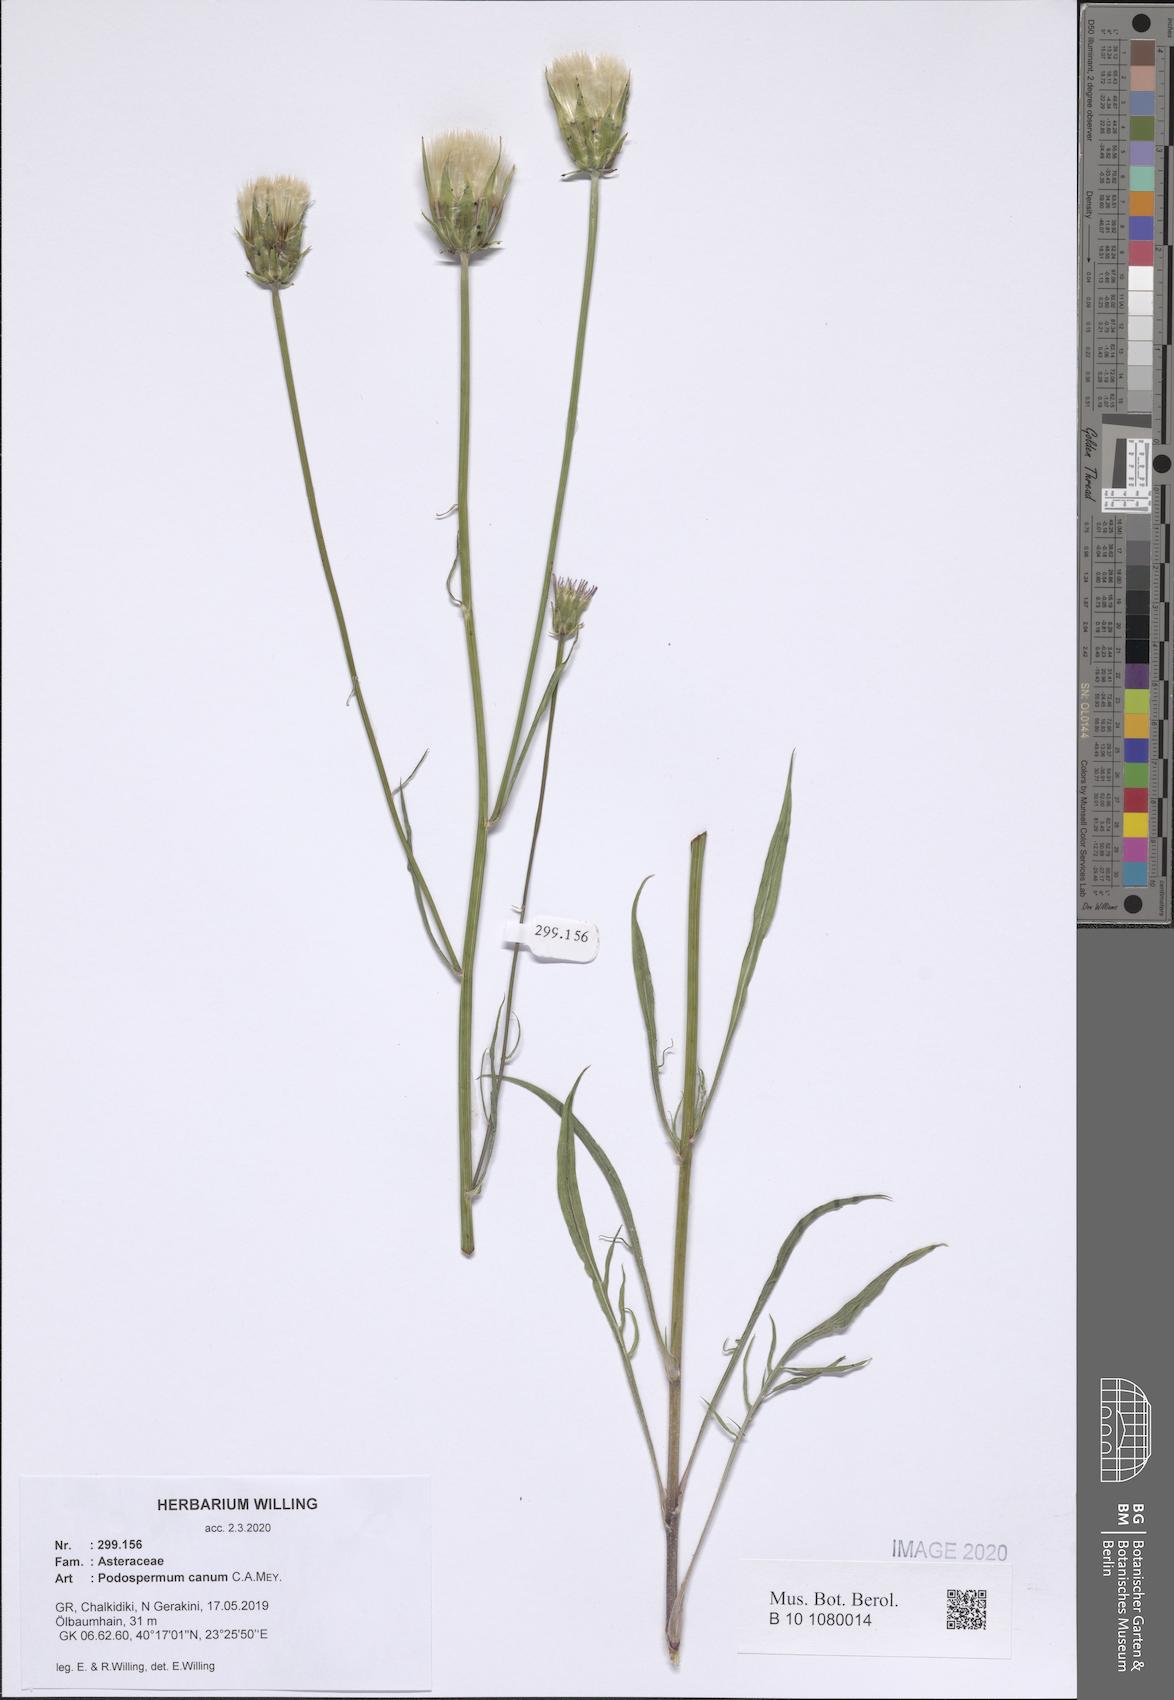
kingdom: Plantae
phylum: Tracheophyta
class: Magnoliopsida
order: Asterales
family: Asteraceae
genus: Scorzonera
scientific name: Scorzonera cana
